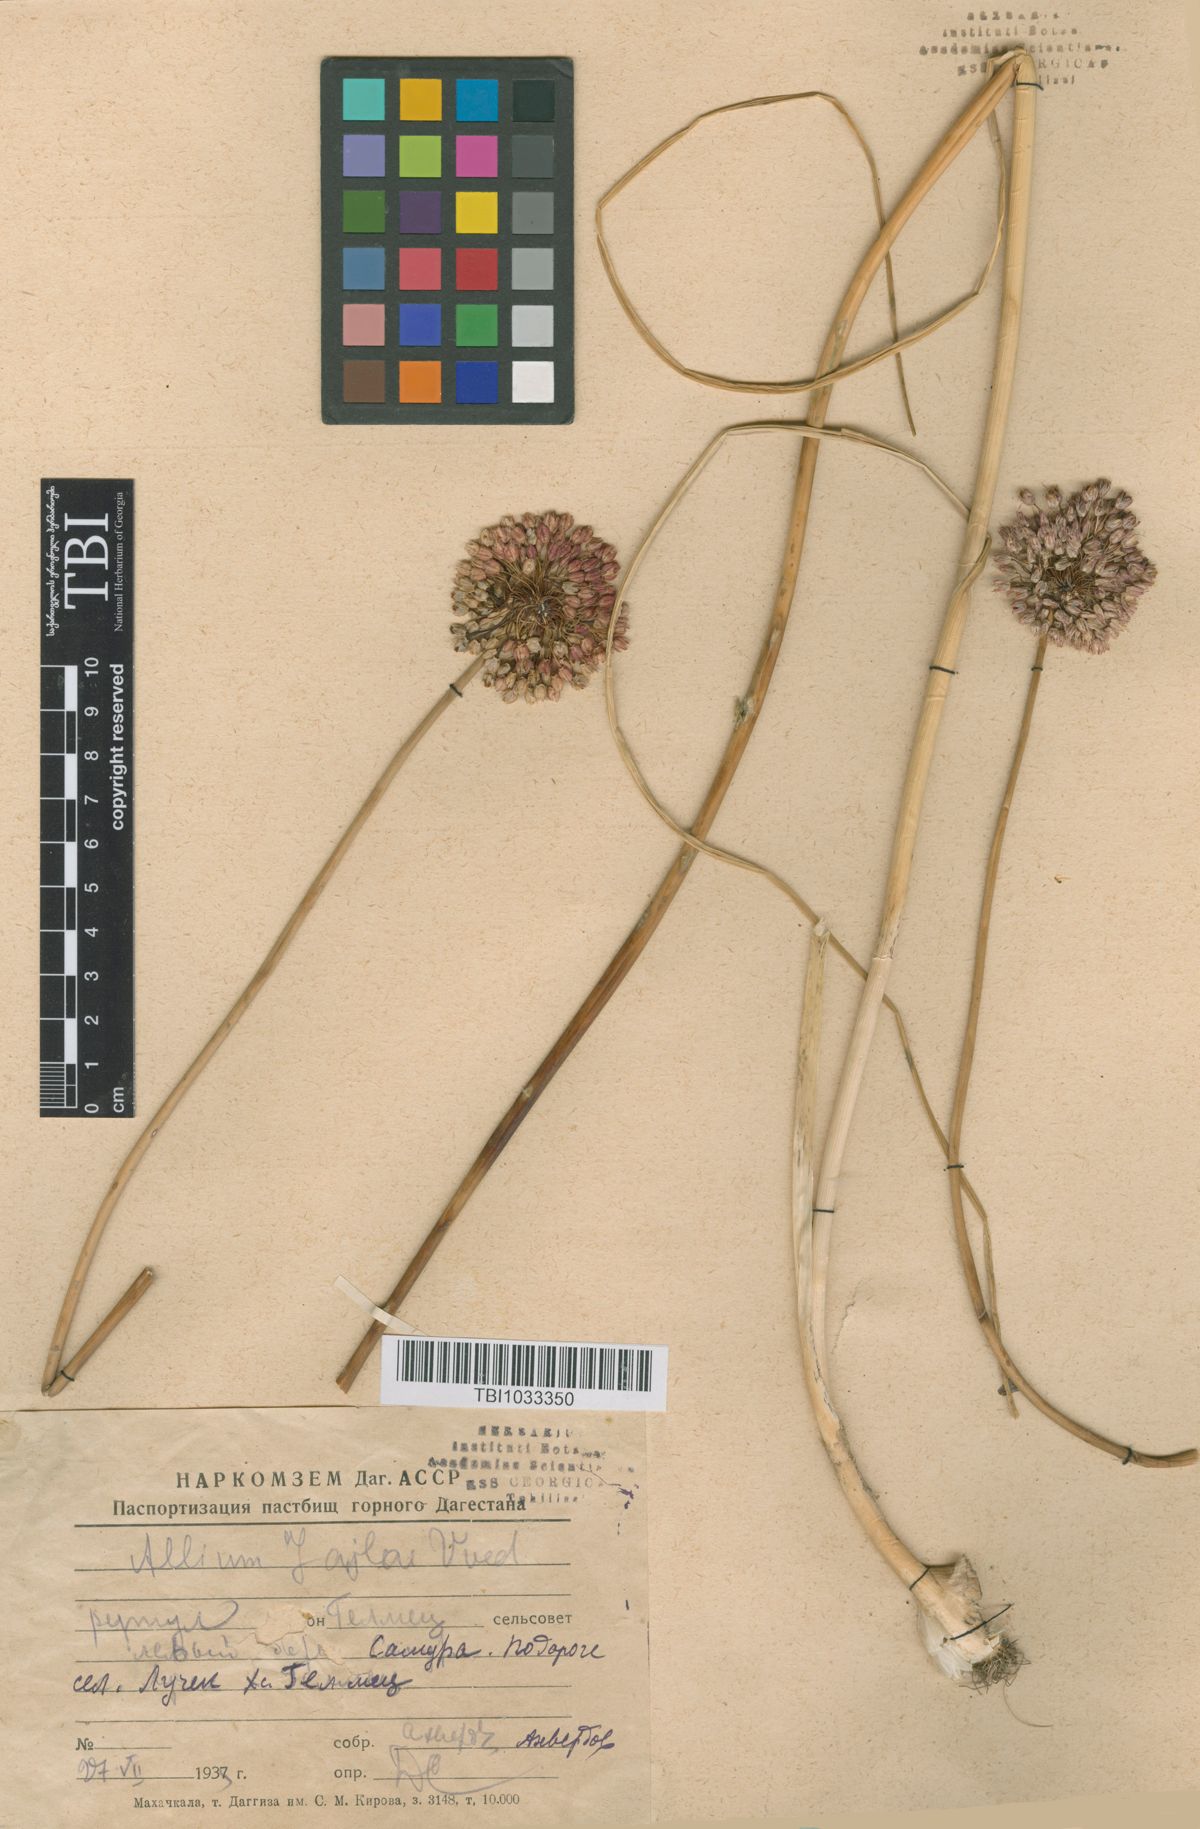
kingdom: Plantae
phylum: Tracheophyta
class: Liliopsida
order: Asparagales
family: Amaryllidaceae
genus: Allium
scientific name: Allium rotundum
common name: Sand leek
